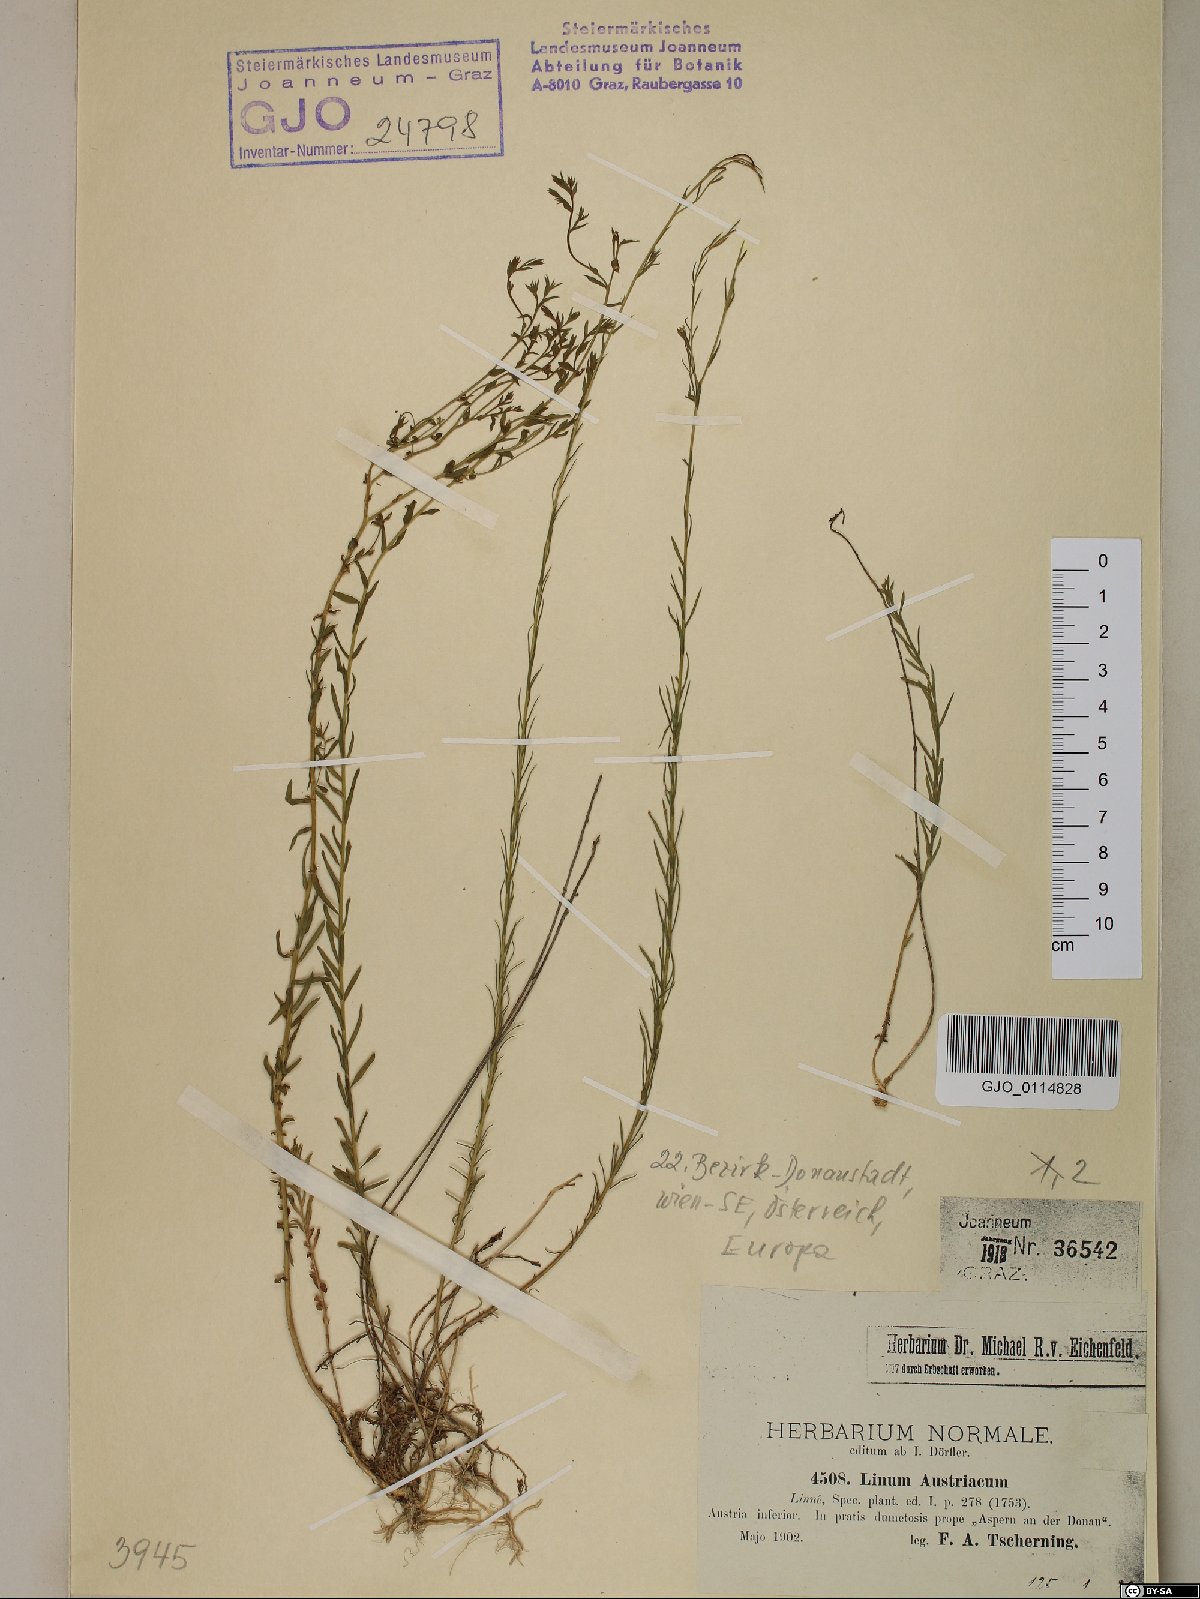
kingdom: Plantae
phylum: Tracheophyta
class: Magnoliopsida
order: Malpighiales
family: Linaceae
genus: Linum
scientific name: Linum austriacum
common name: Austrian flax
